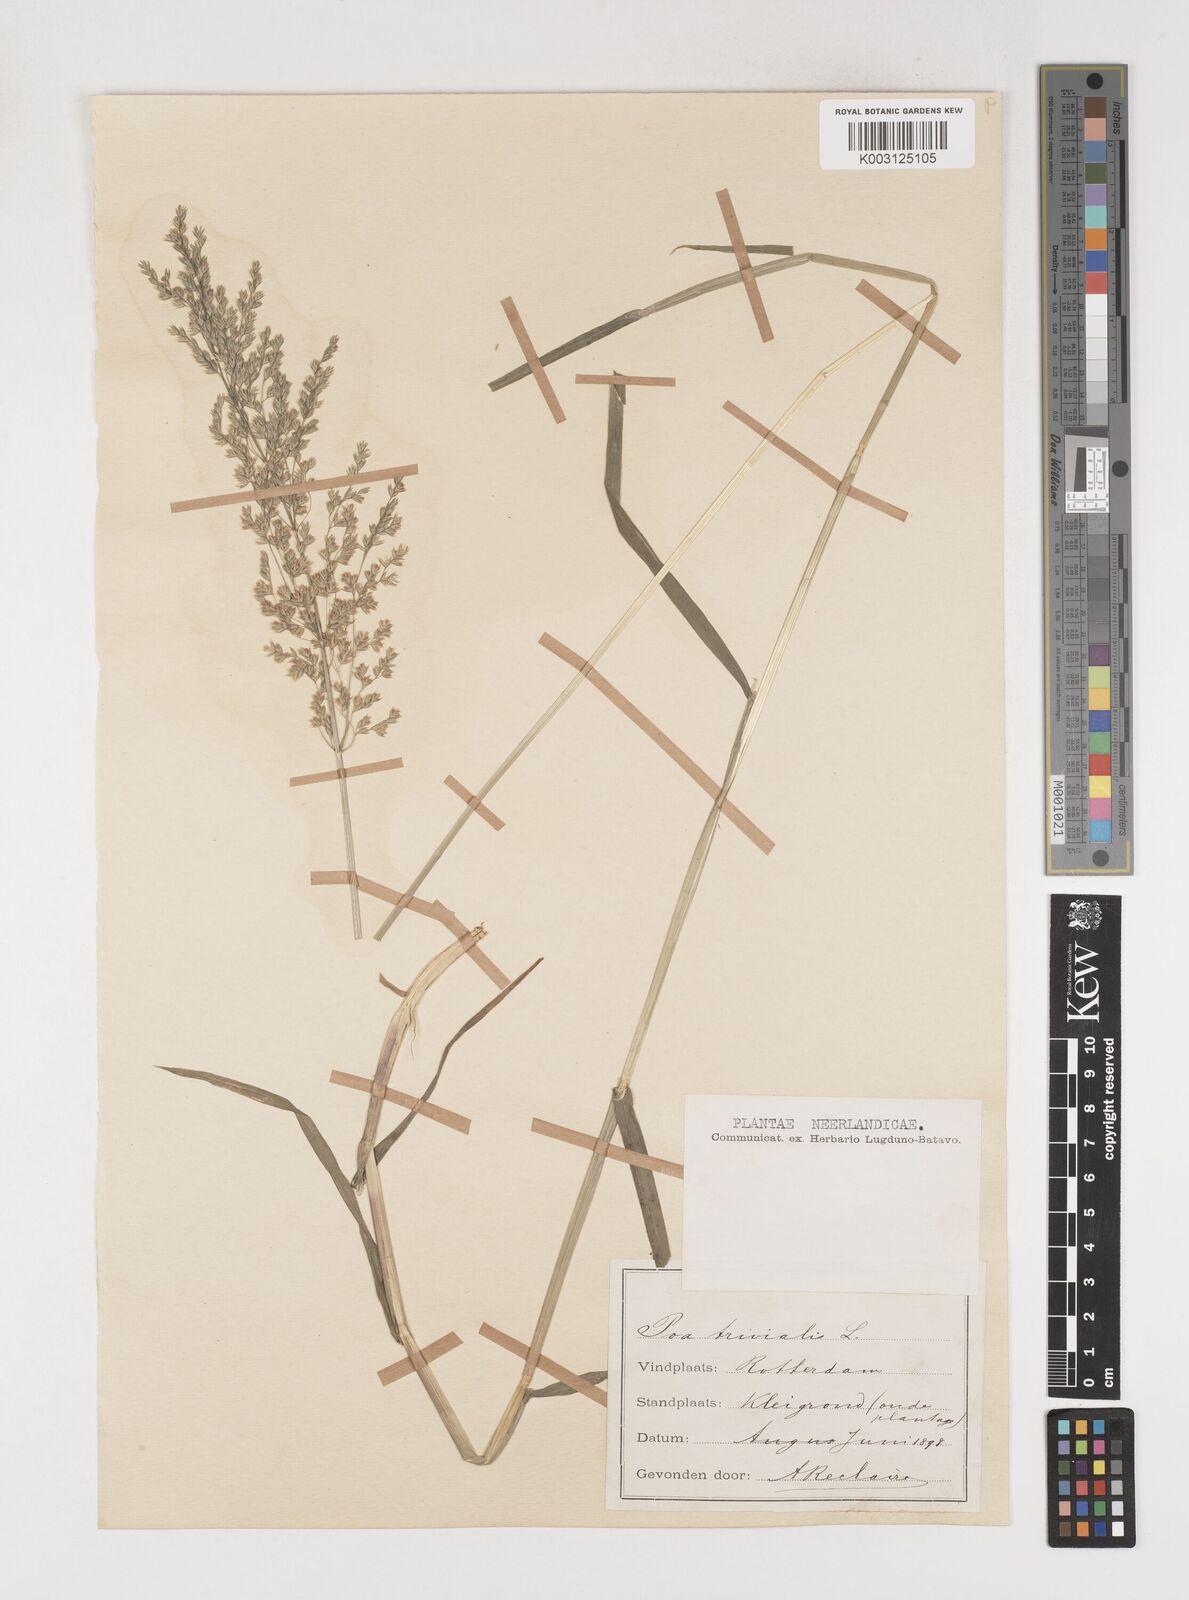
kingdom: Plantae
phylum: Tracheophyta
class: Liliopsida
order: Poales
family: Poaceae
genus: Poa
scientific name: Poa trivialis
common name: Rough bluegrass
